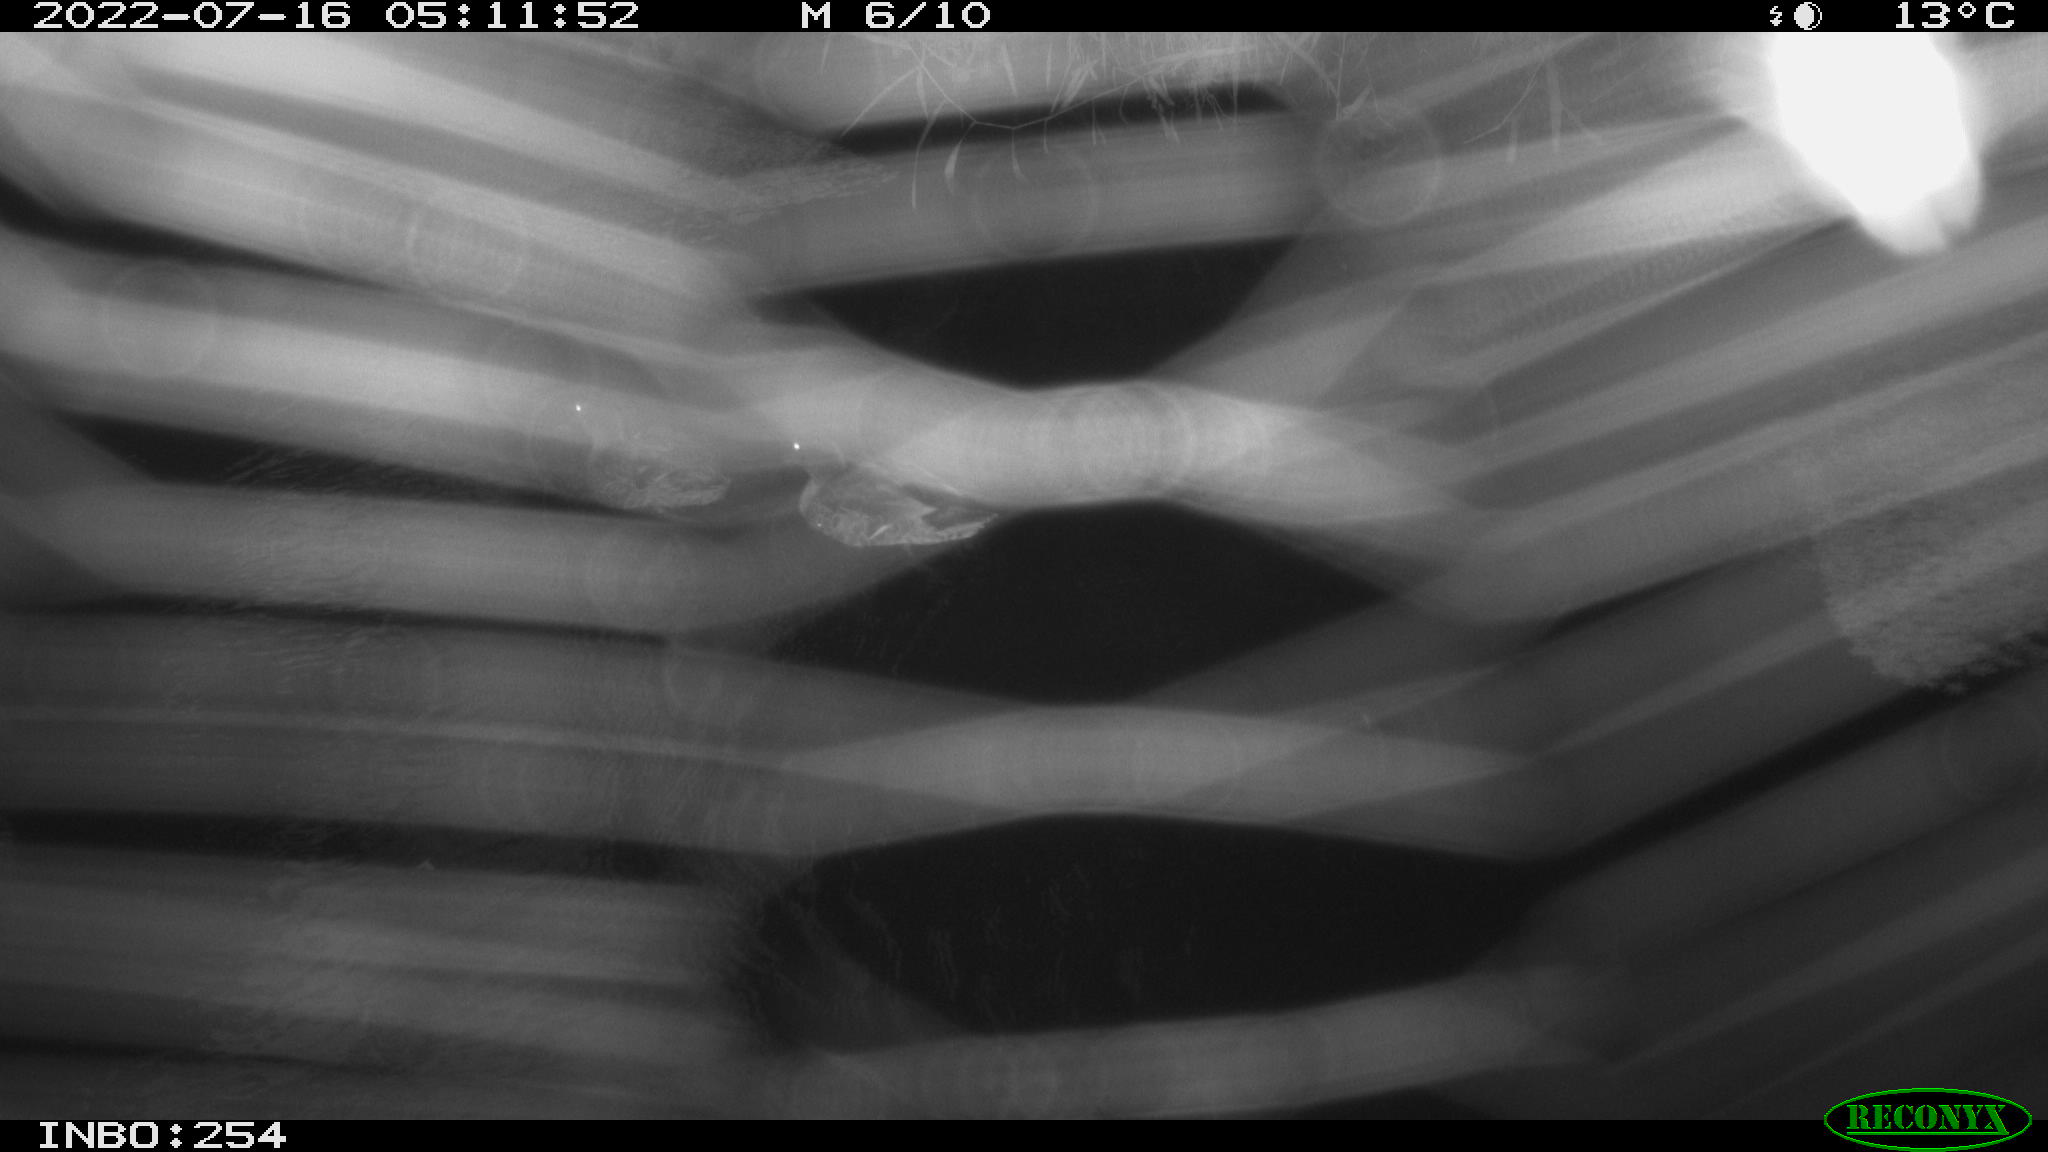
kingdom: Animalia
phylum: Chordata
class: Aves
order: Anseriformes
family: Anatidae
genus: Anas
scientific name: Anas platyrhynchos
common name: Mallard
